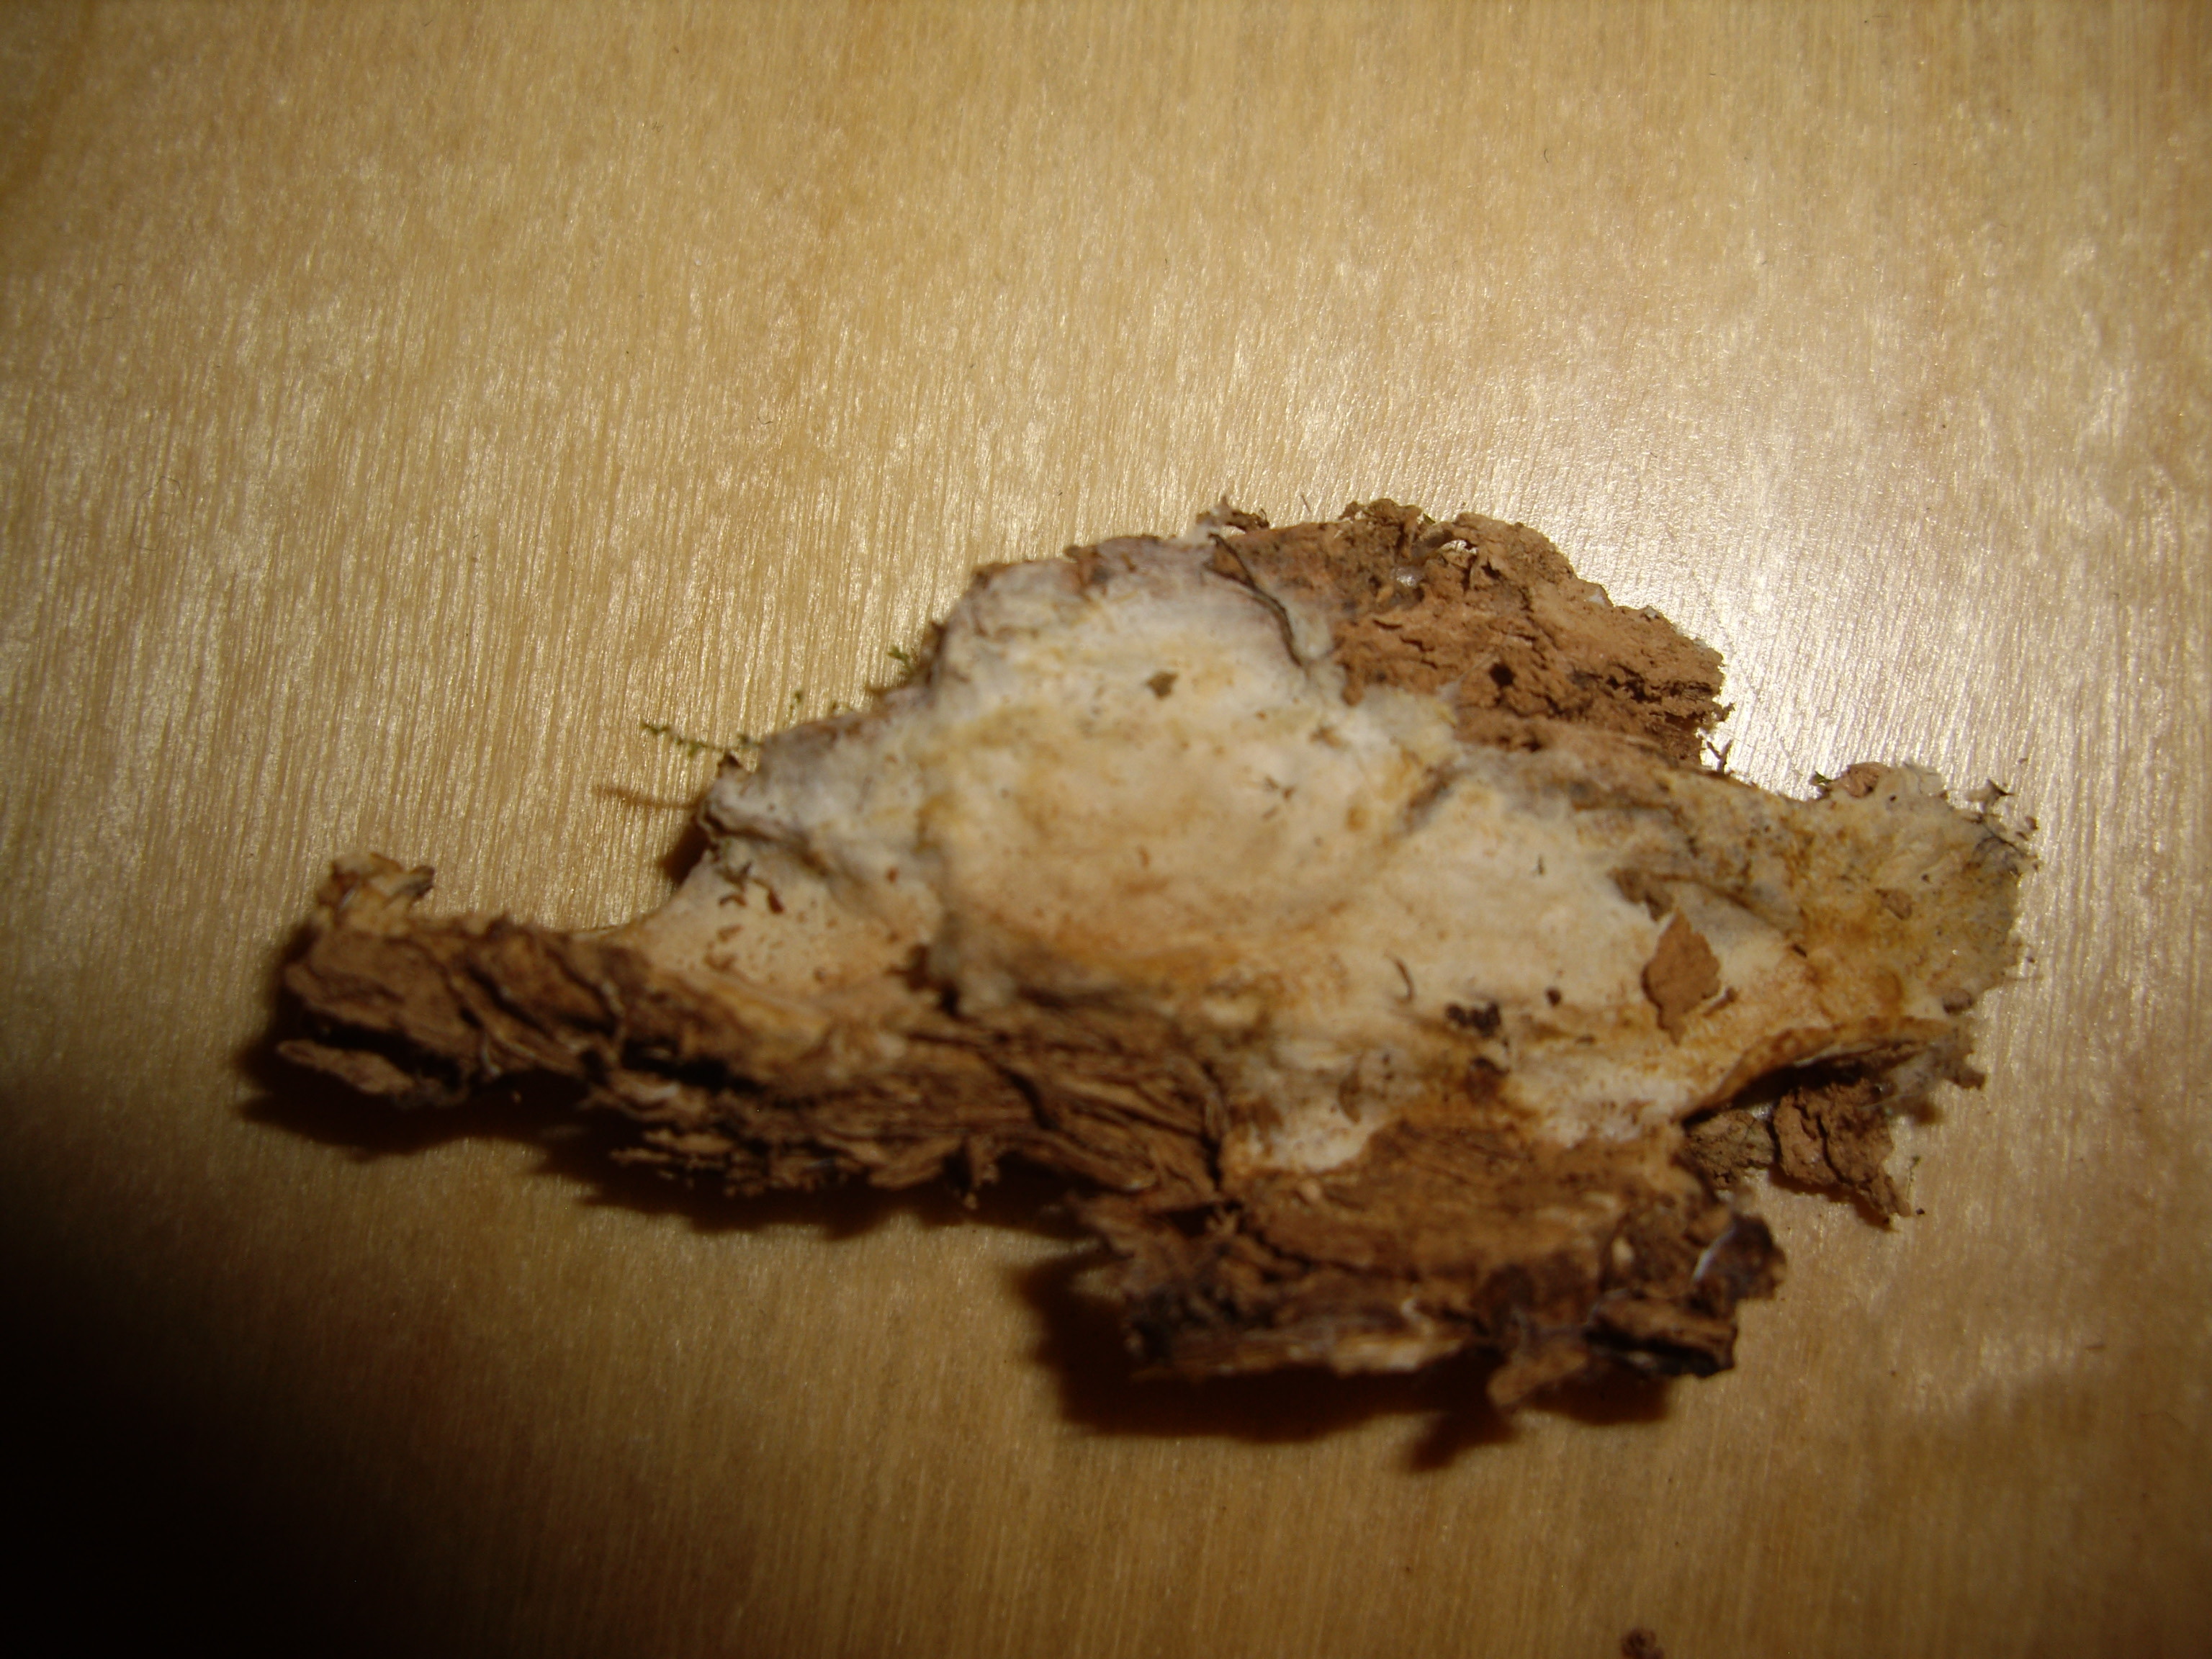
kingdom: Fungi
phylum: Basidiomycota
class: Agaricomycetes
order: Hymenochaetales
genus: Fibricium
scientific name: Fibricium subodoratum
